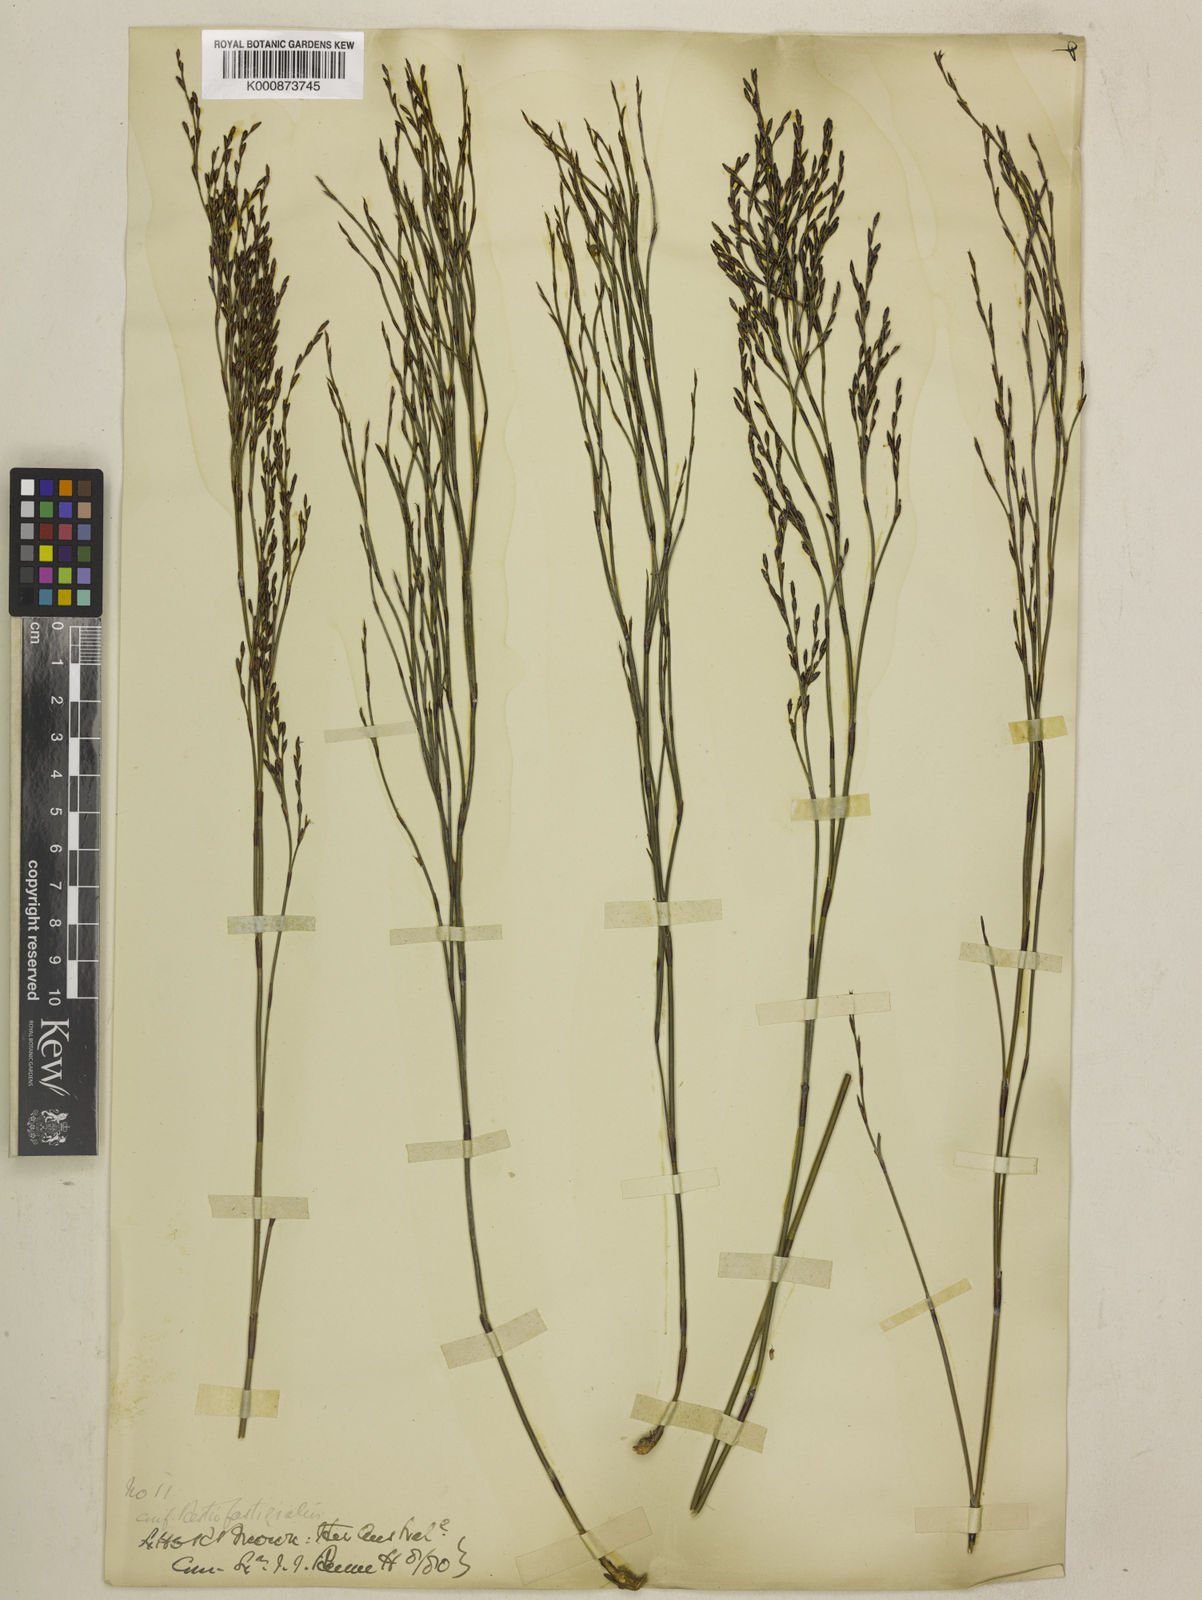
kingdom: Plantae
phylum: Tracheophyta
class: Liliopsida
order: Poales
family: Restionaceae
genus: Chordifex
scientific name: Chordifex fastigiatus
